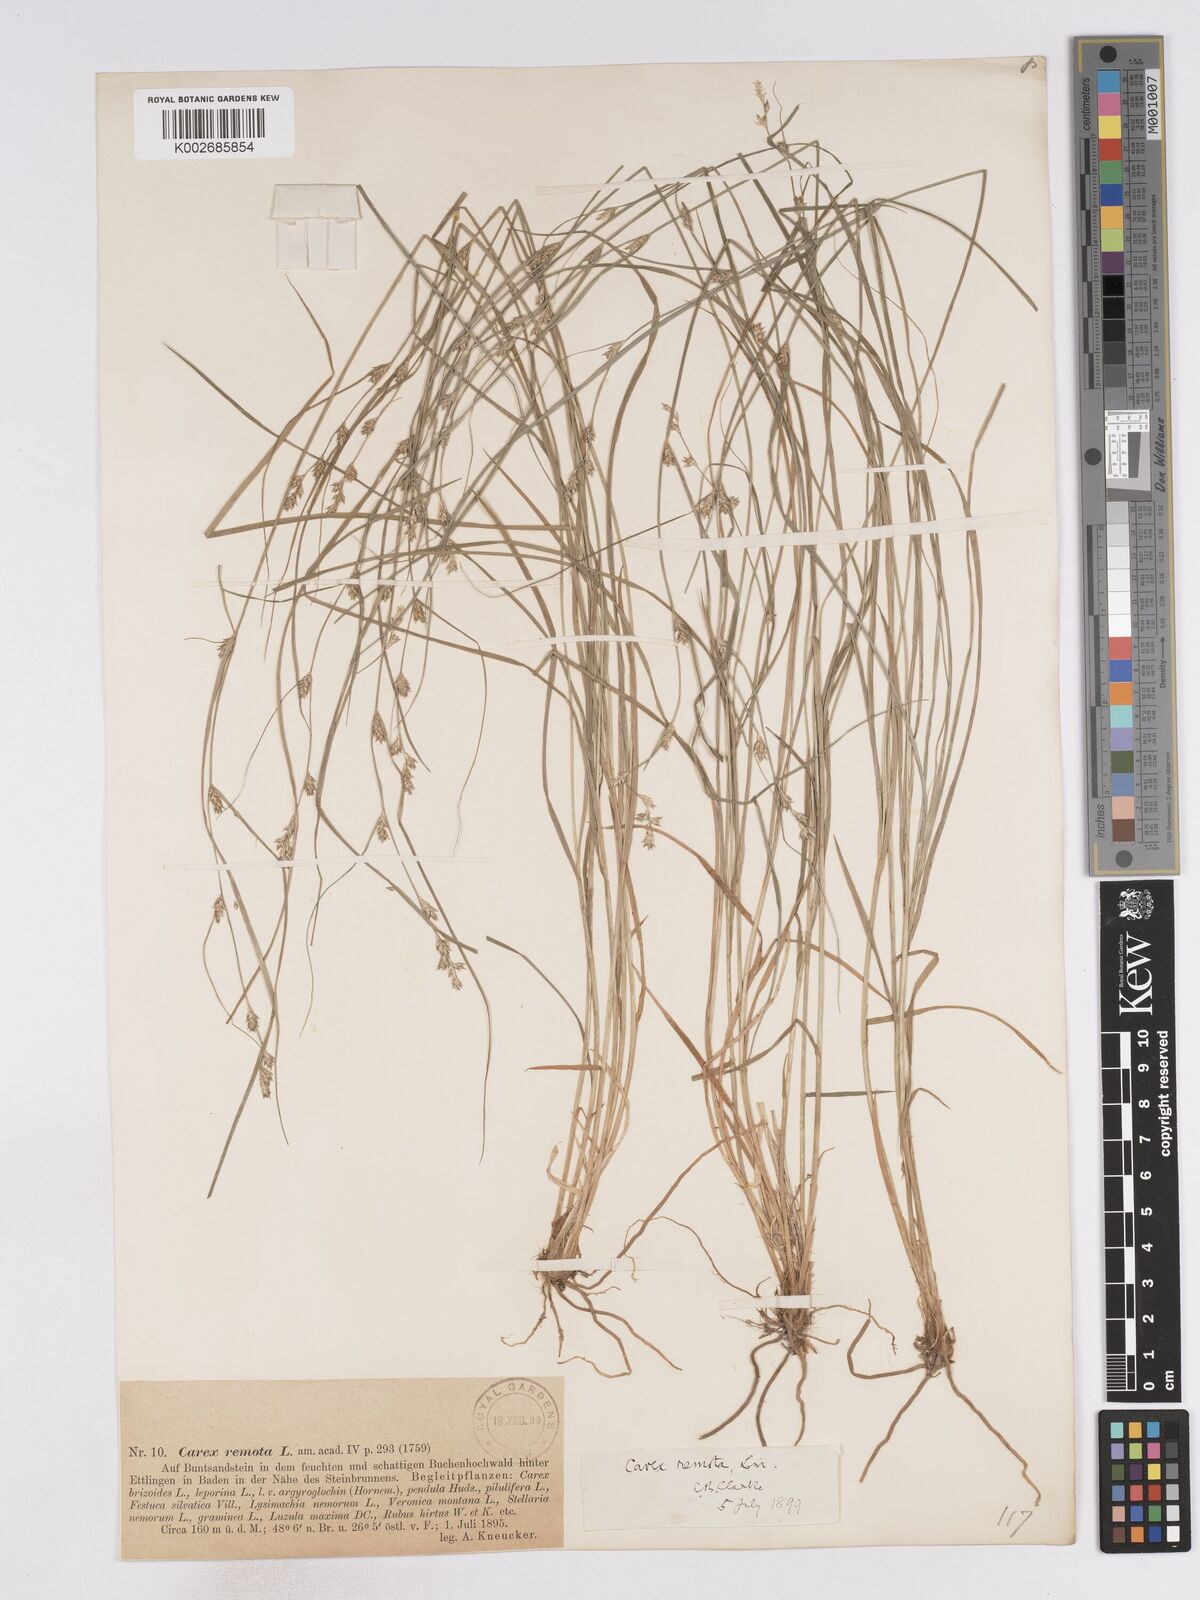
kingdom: Plantae
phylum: Tracheophyta
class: Liliopsida
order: Poales
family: Cyperaceae
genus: Carex
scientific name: Carex remota
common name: Remote sedge
